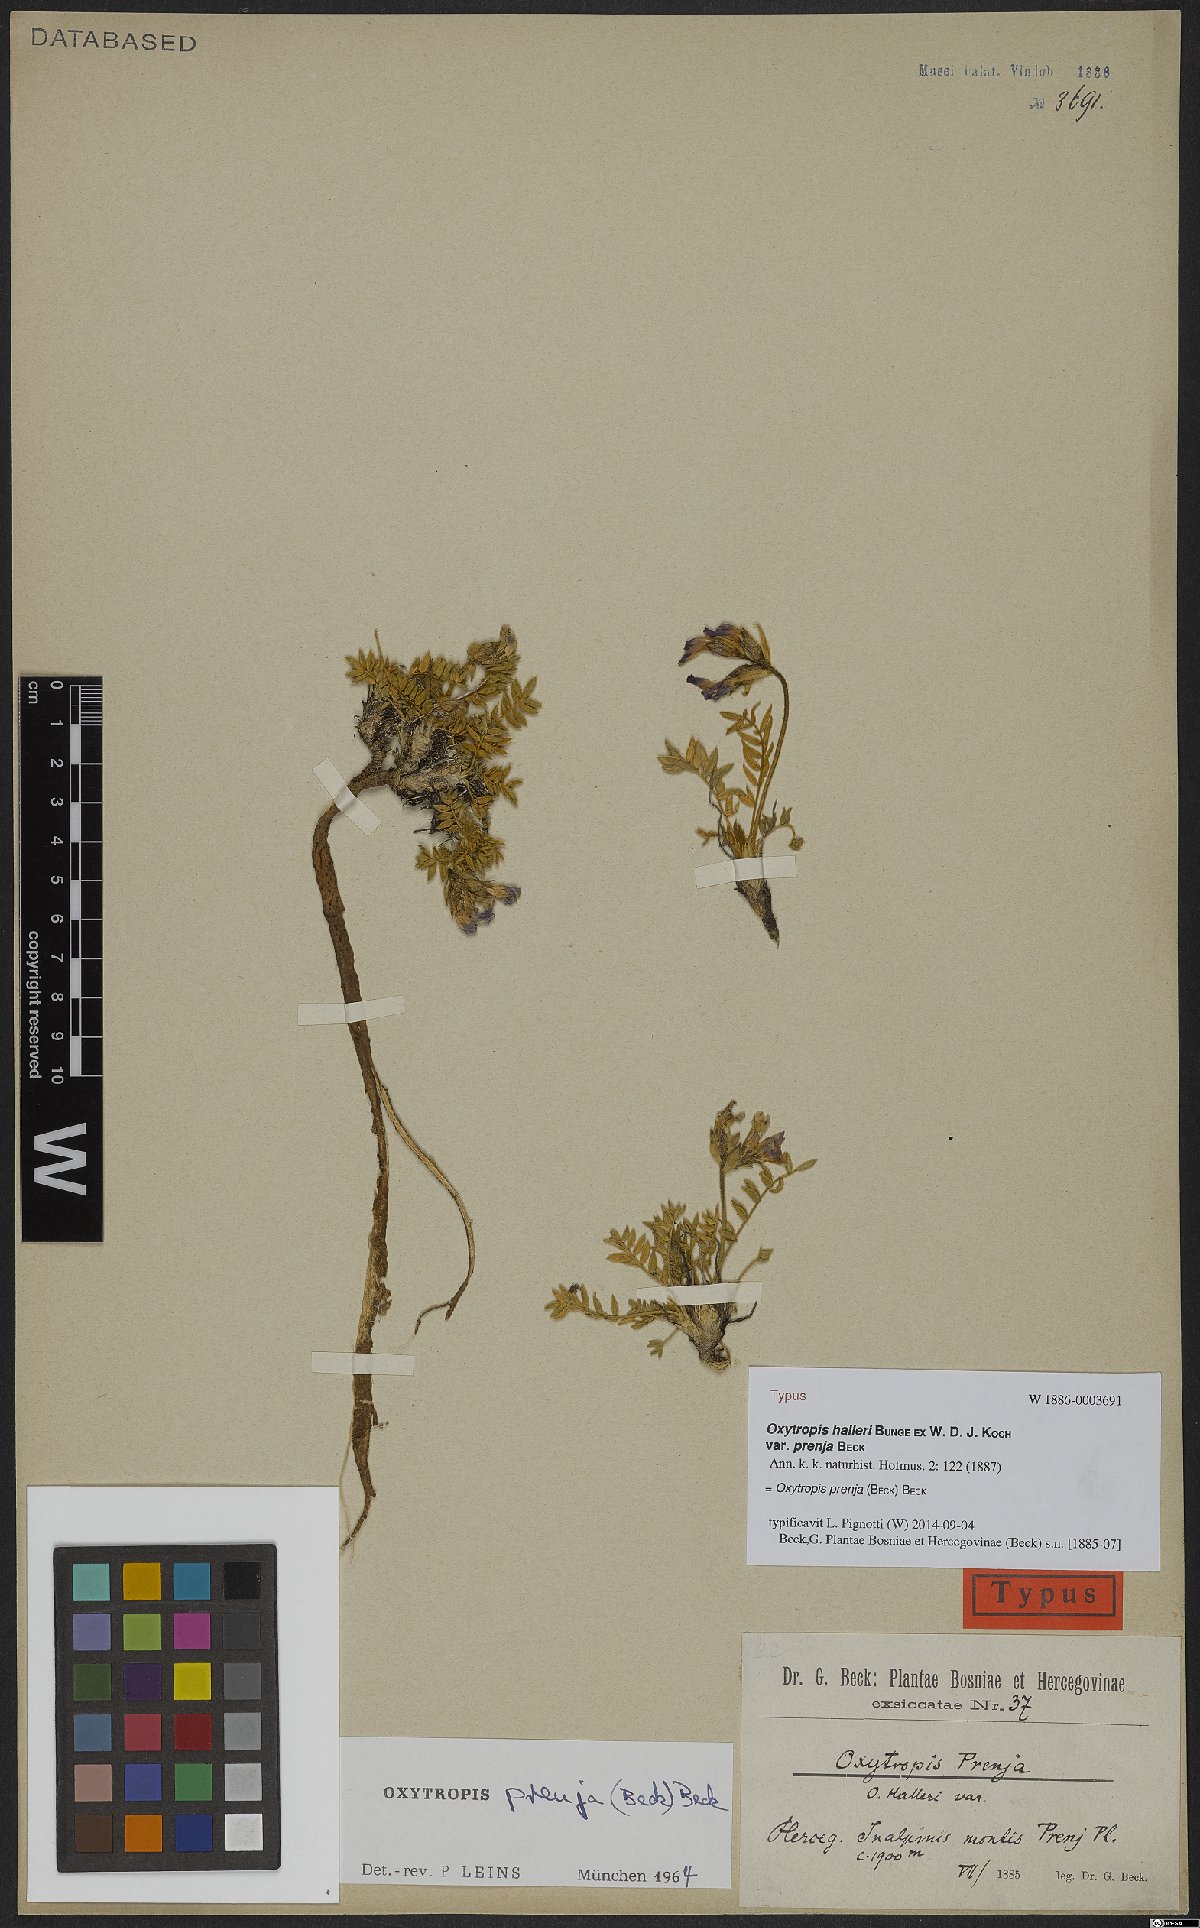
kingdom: Plantae
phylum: Tracheophyta
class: Magnoliopsida
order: Fabales
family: Fabaceae
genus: Oxytropis
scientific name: Oxytropis prenja
